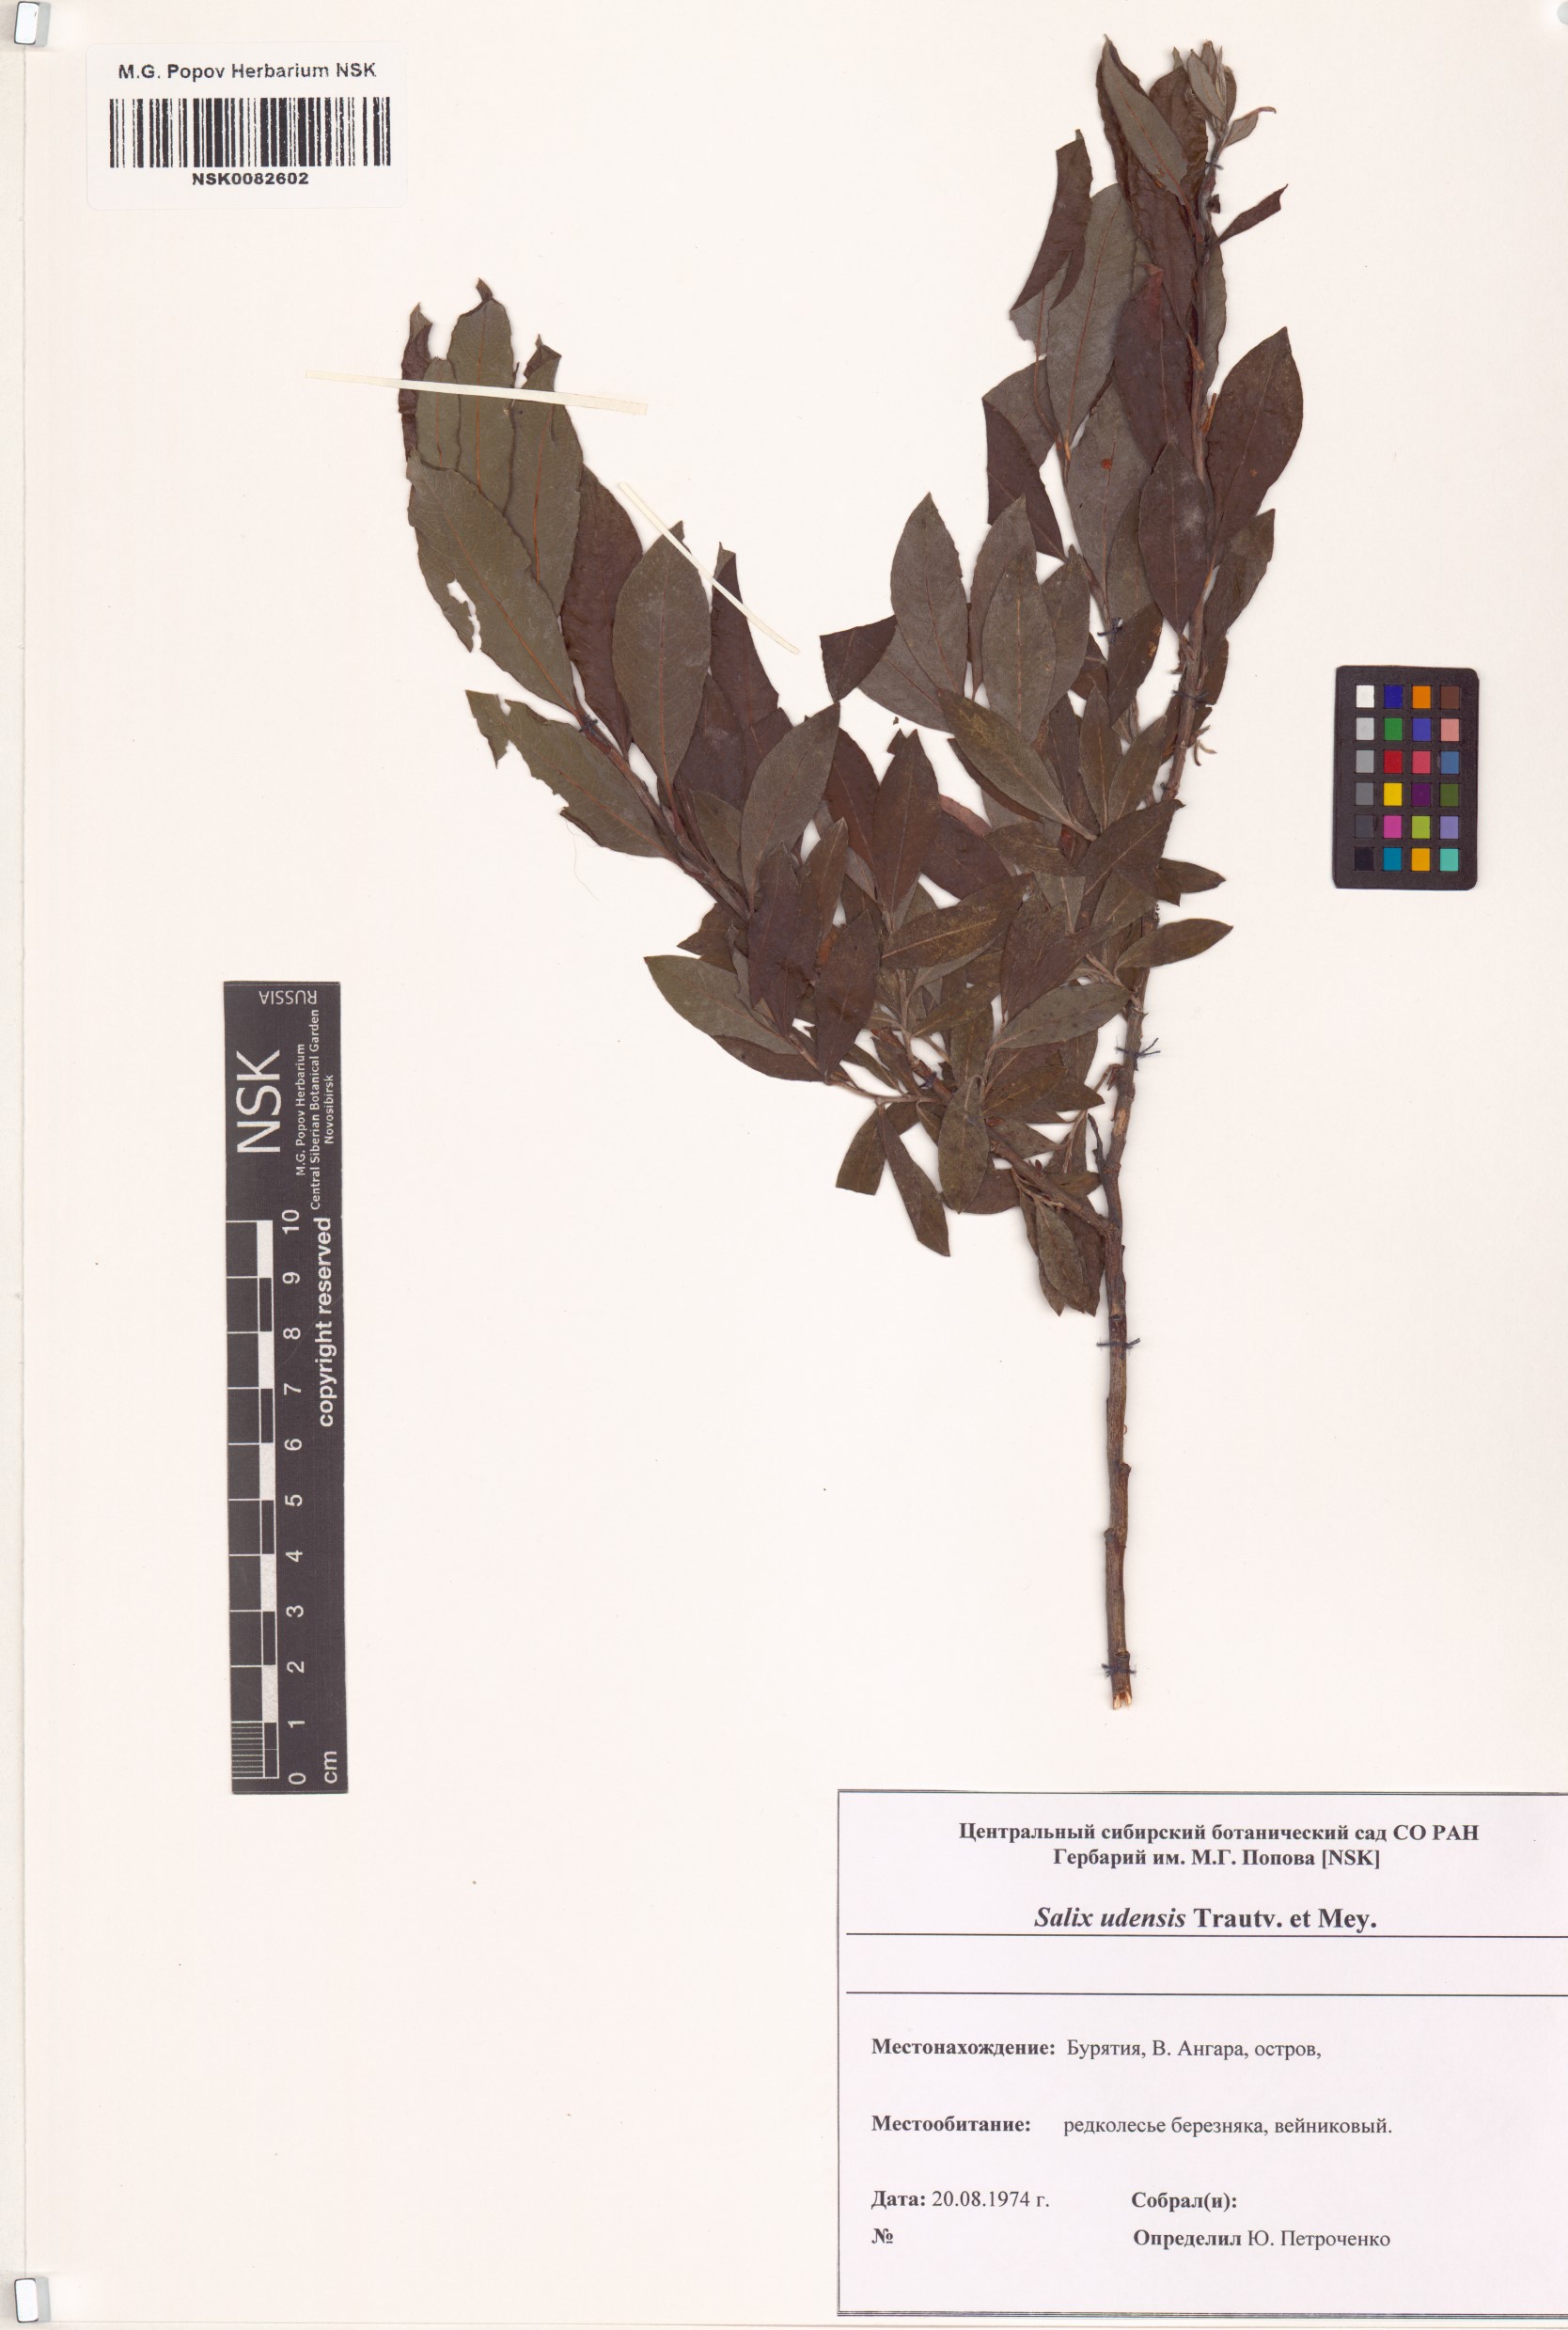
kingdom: Plantae
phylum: Tracheophyta
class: Magnoliopsida
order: Malpighiales
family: Salicaceae
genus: Salix
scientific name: Salix udensis
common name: Sachalin willow
